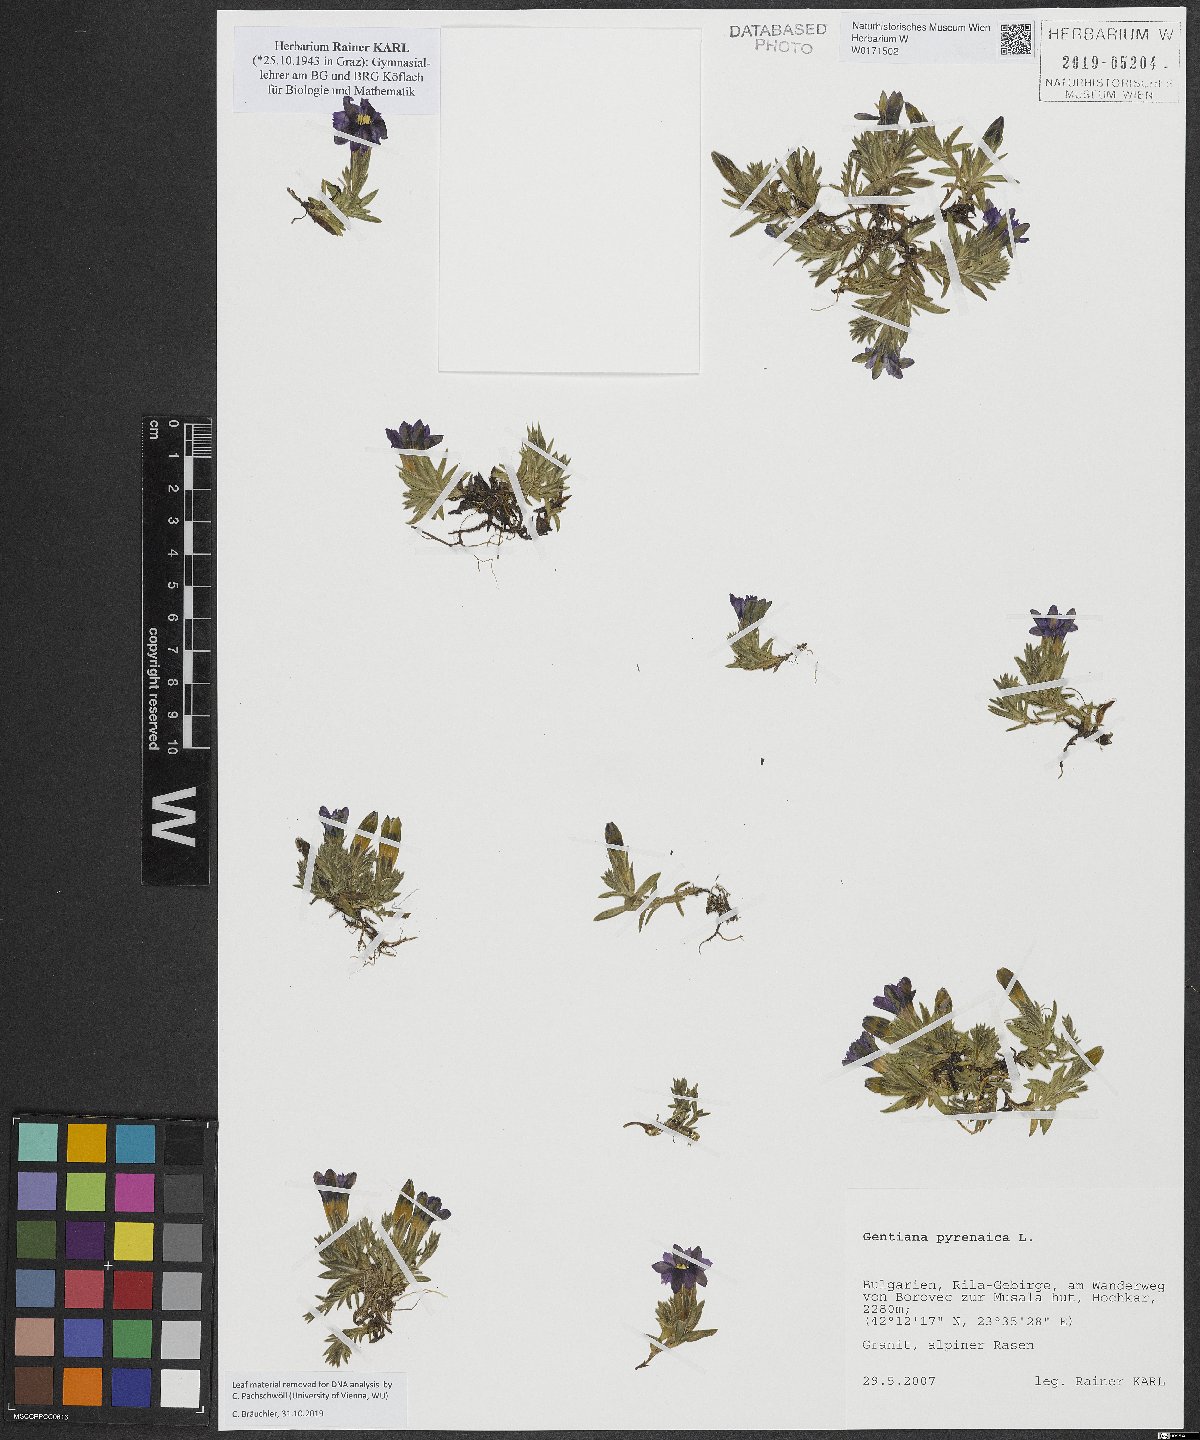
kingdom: Plantae
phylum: Tracheophyta
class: Magnoliopsida
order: Gentianales
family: Gentianaceae
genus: Gentiana
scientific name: Gentiana pyrenaica
